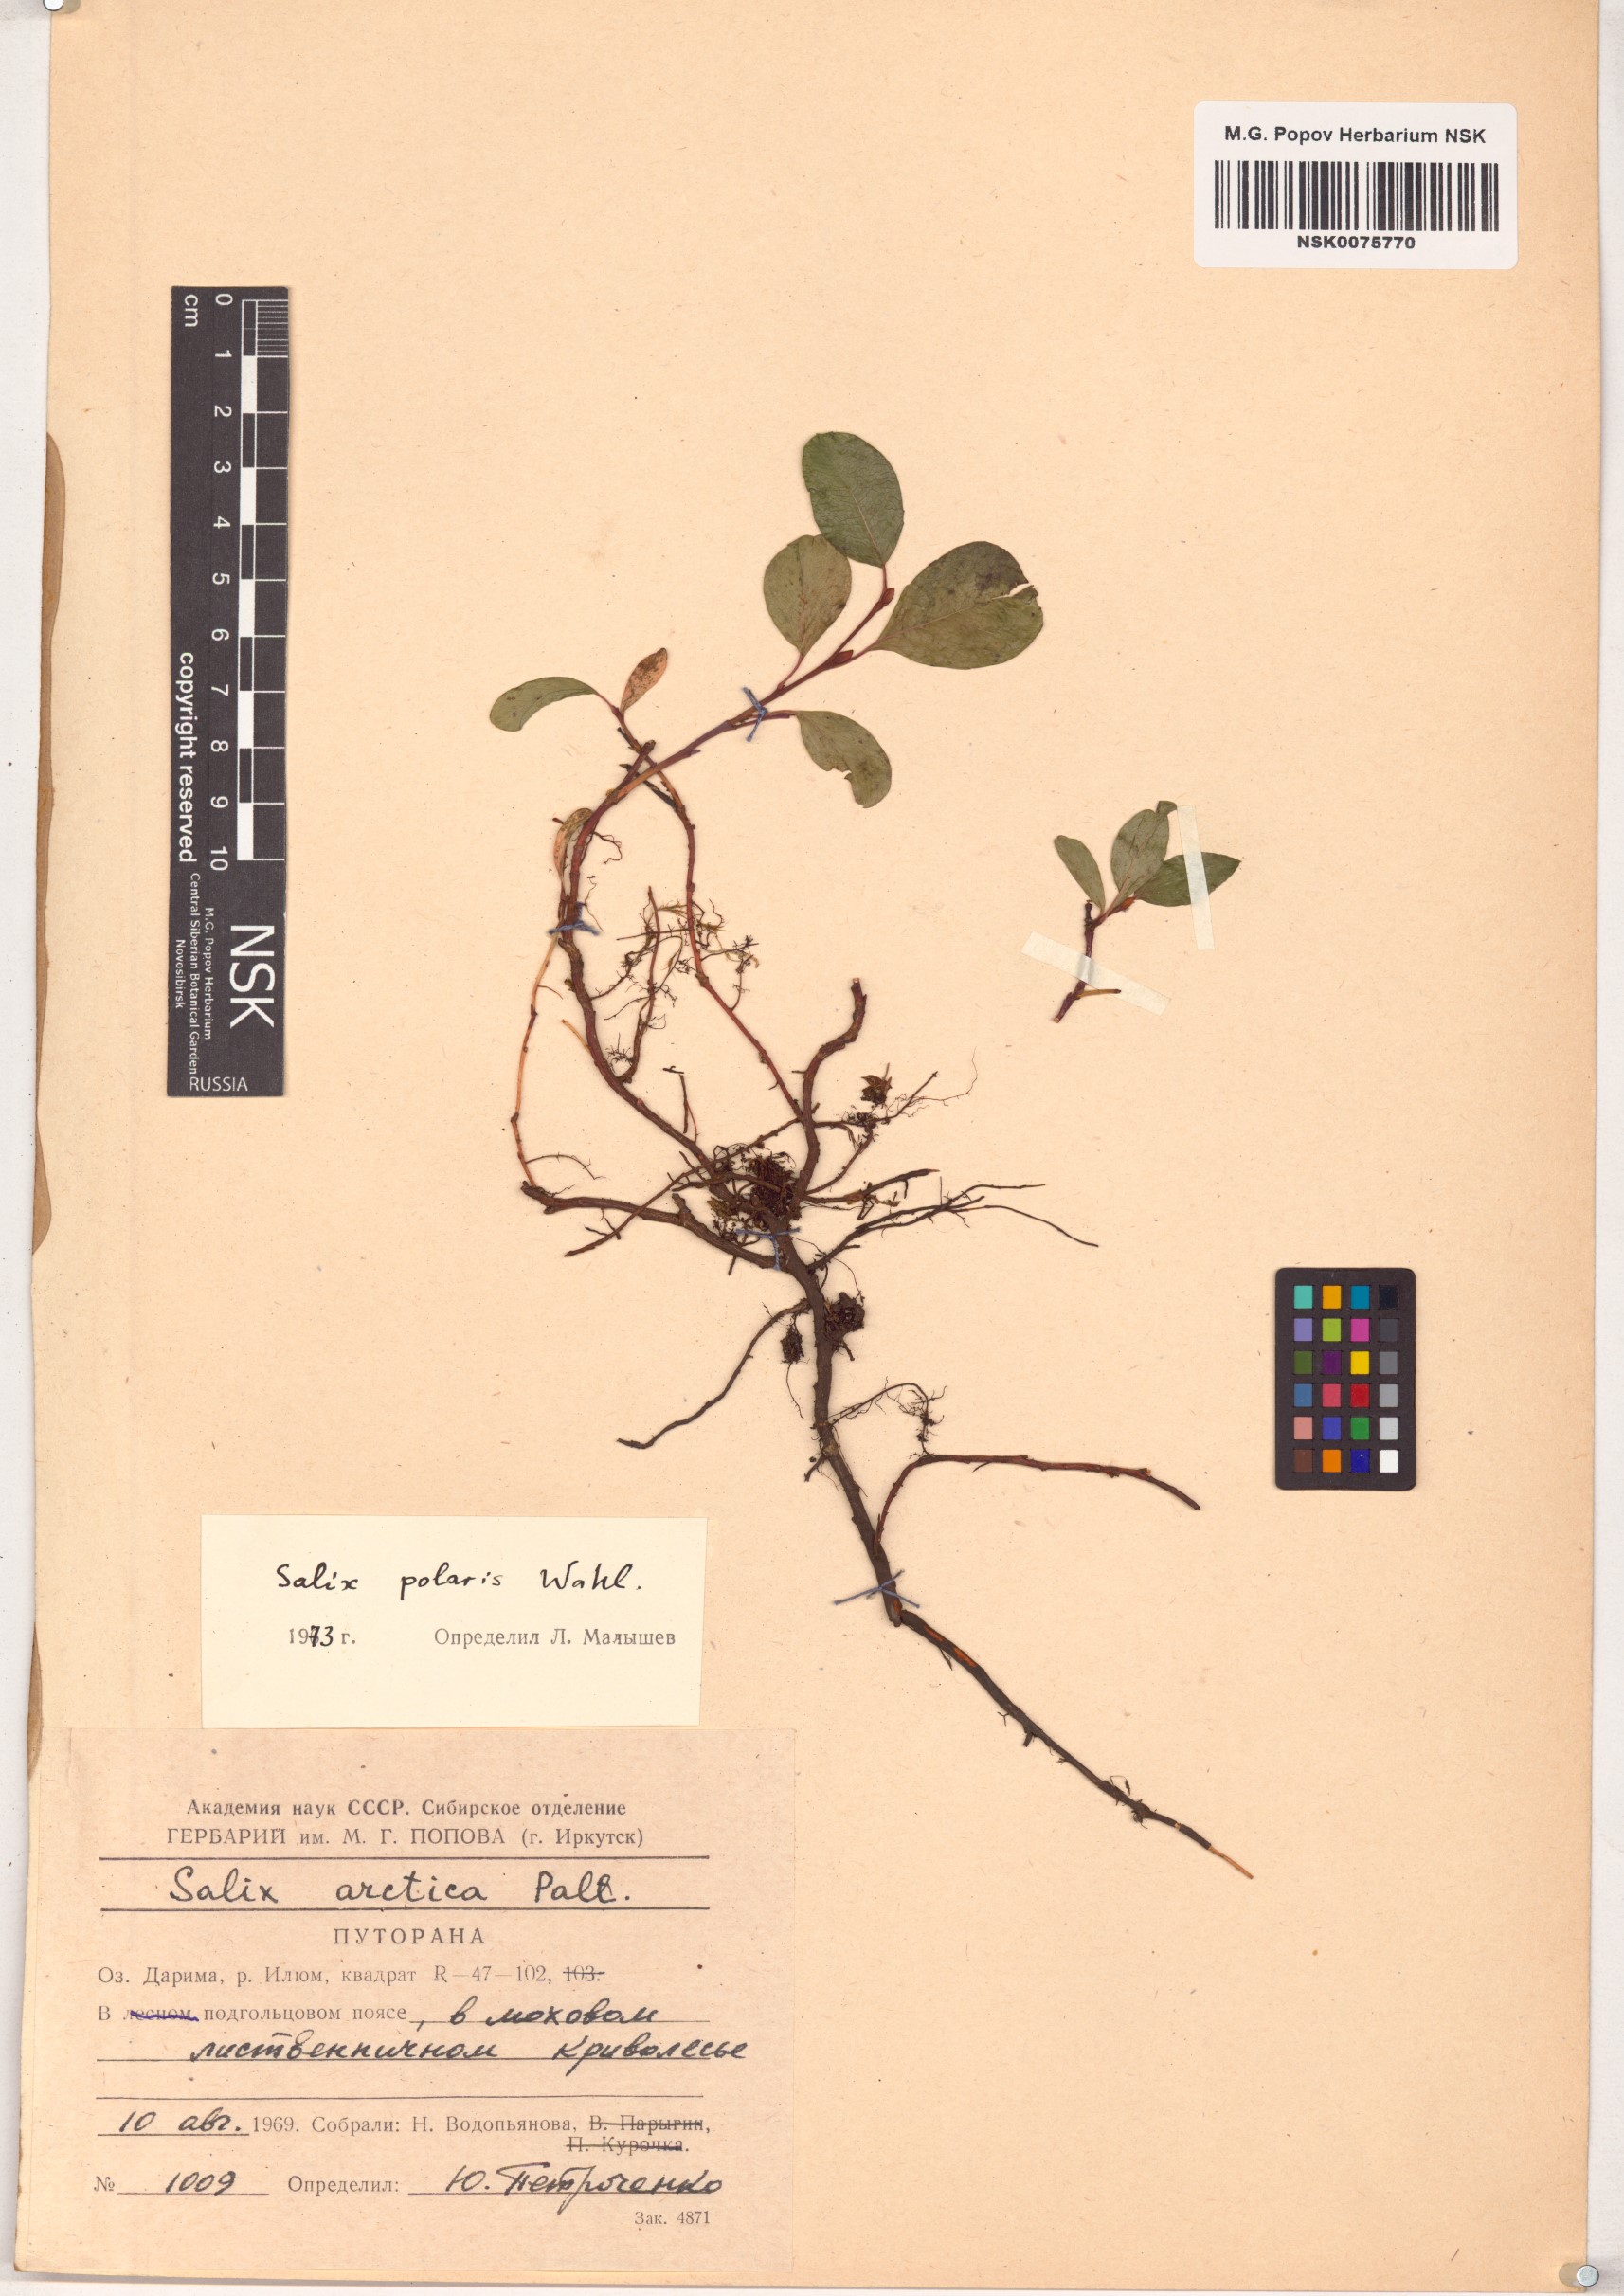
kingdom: Plantae
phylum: Tracheophyta
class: Magnoliopsida
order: Malpighiales
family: Salicaceae
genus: Salix
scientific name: Salix polaris
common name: Polar willow
